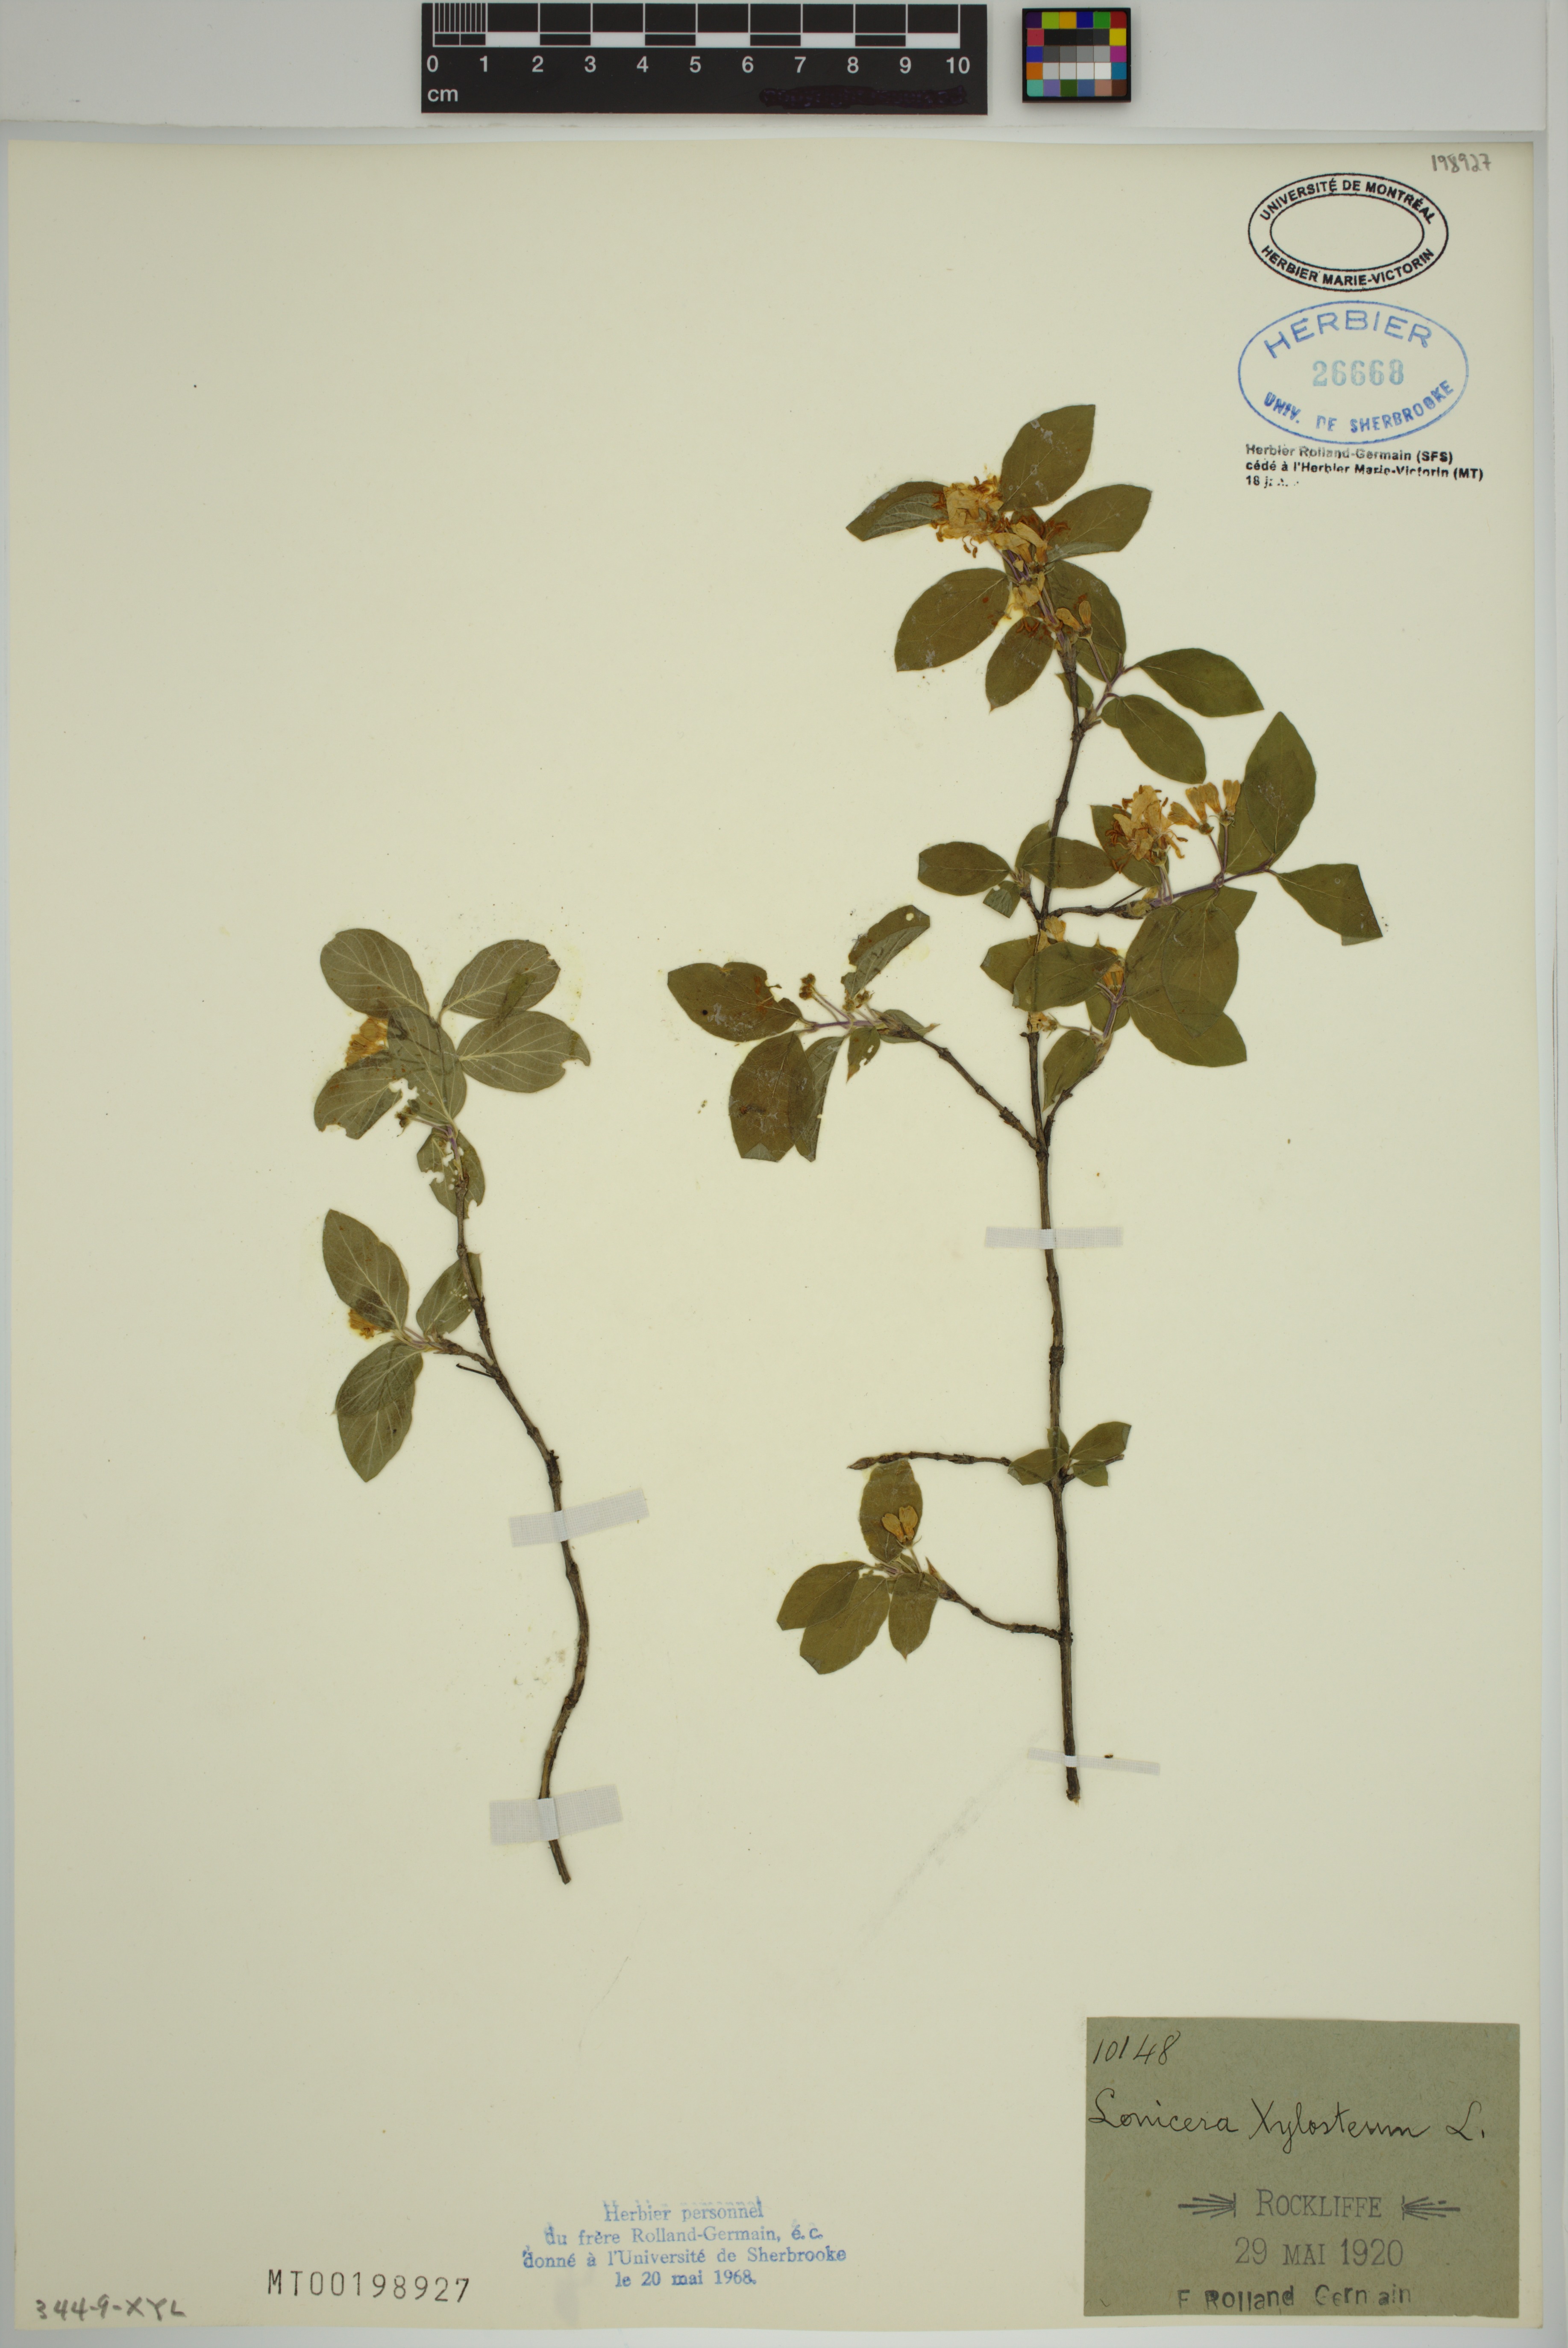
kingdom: Plantae
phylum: Tracheophyta
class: Magnoliopsida
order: Dipsacales
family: Caprifoliaceae
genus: Lonicera
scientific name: Lonicera xylosteum
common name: Fly honeysuckle
